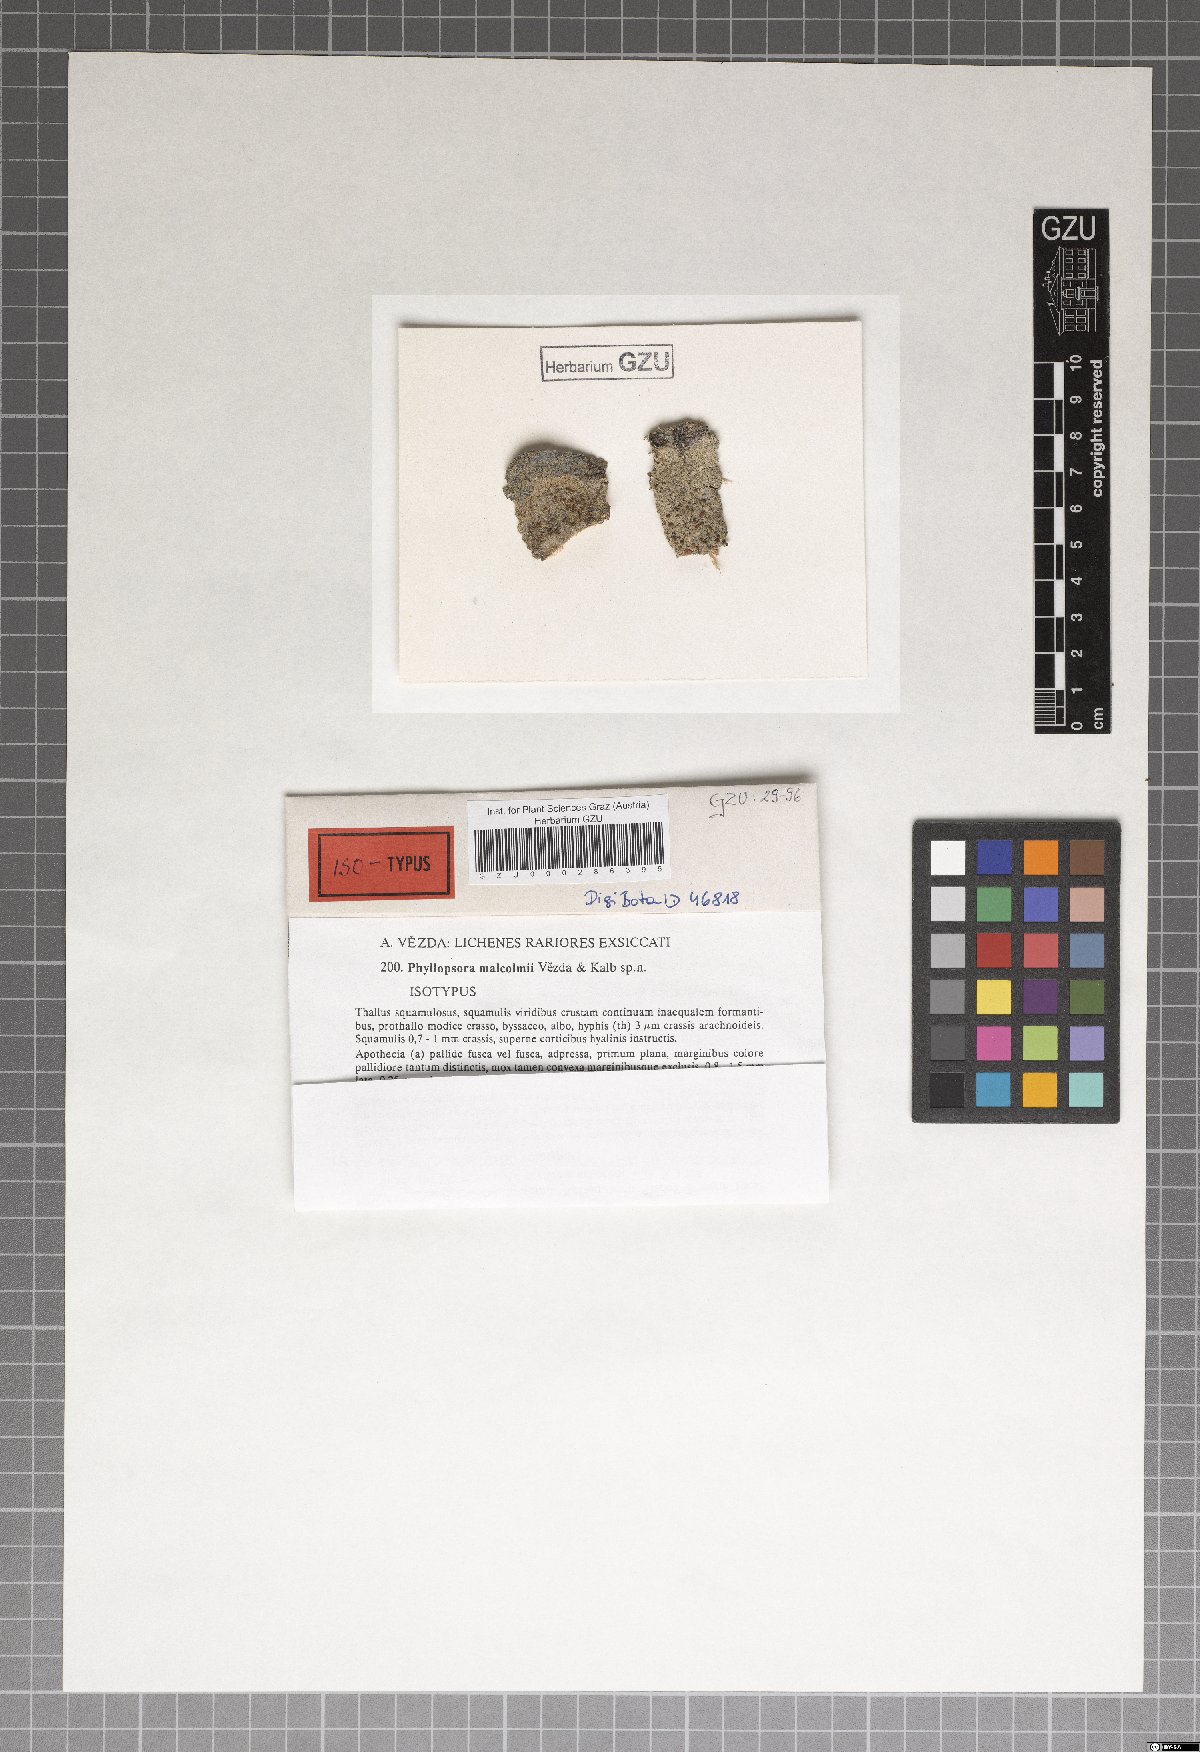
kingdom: Fungi
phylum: Ascomycota
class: Lecanoromycetes
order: Lecanorales
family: Lecanoraceae
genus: Myrionora
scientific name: Myrionora malcolmii
